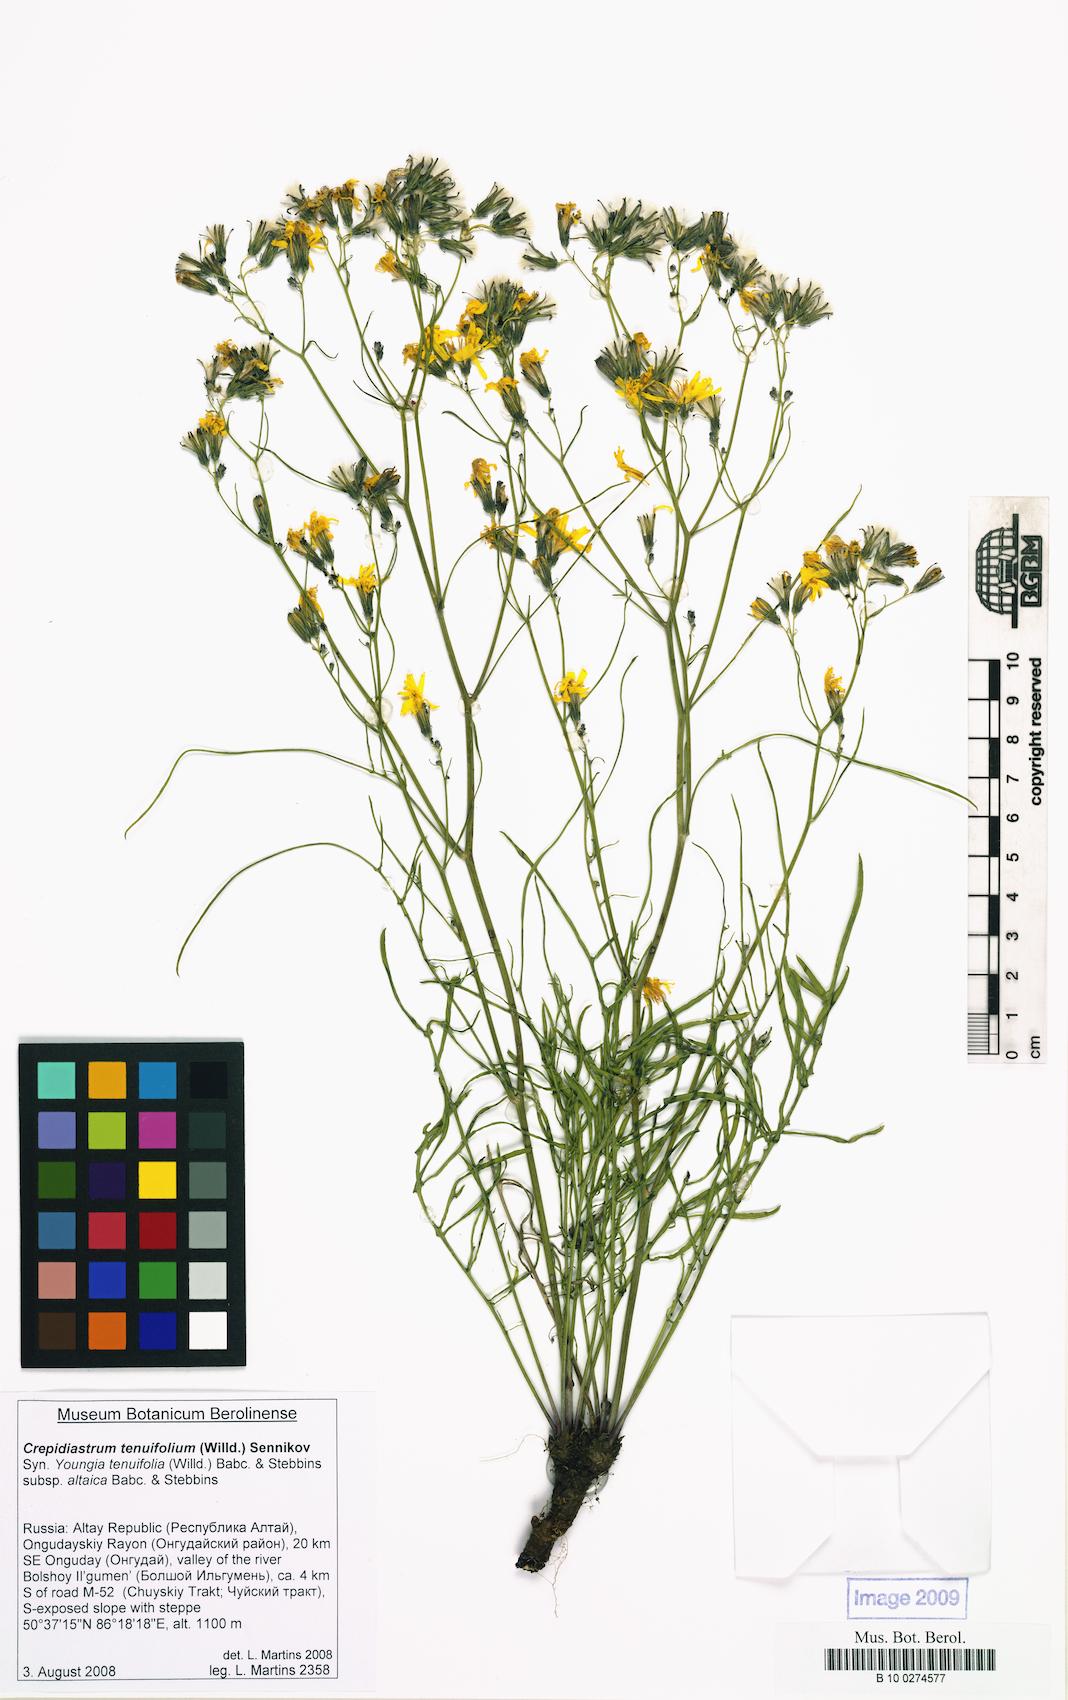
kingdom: Plantae
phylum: Tracheophyta
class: Magnoliopsida
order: Asterales
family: Asteraceae
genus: Crepidiastrum
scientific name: Crepidiastrum tenuifolium
